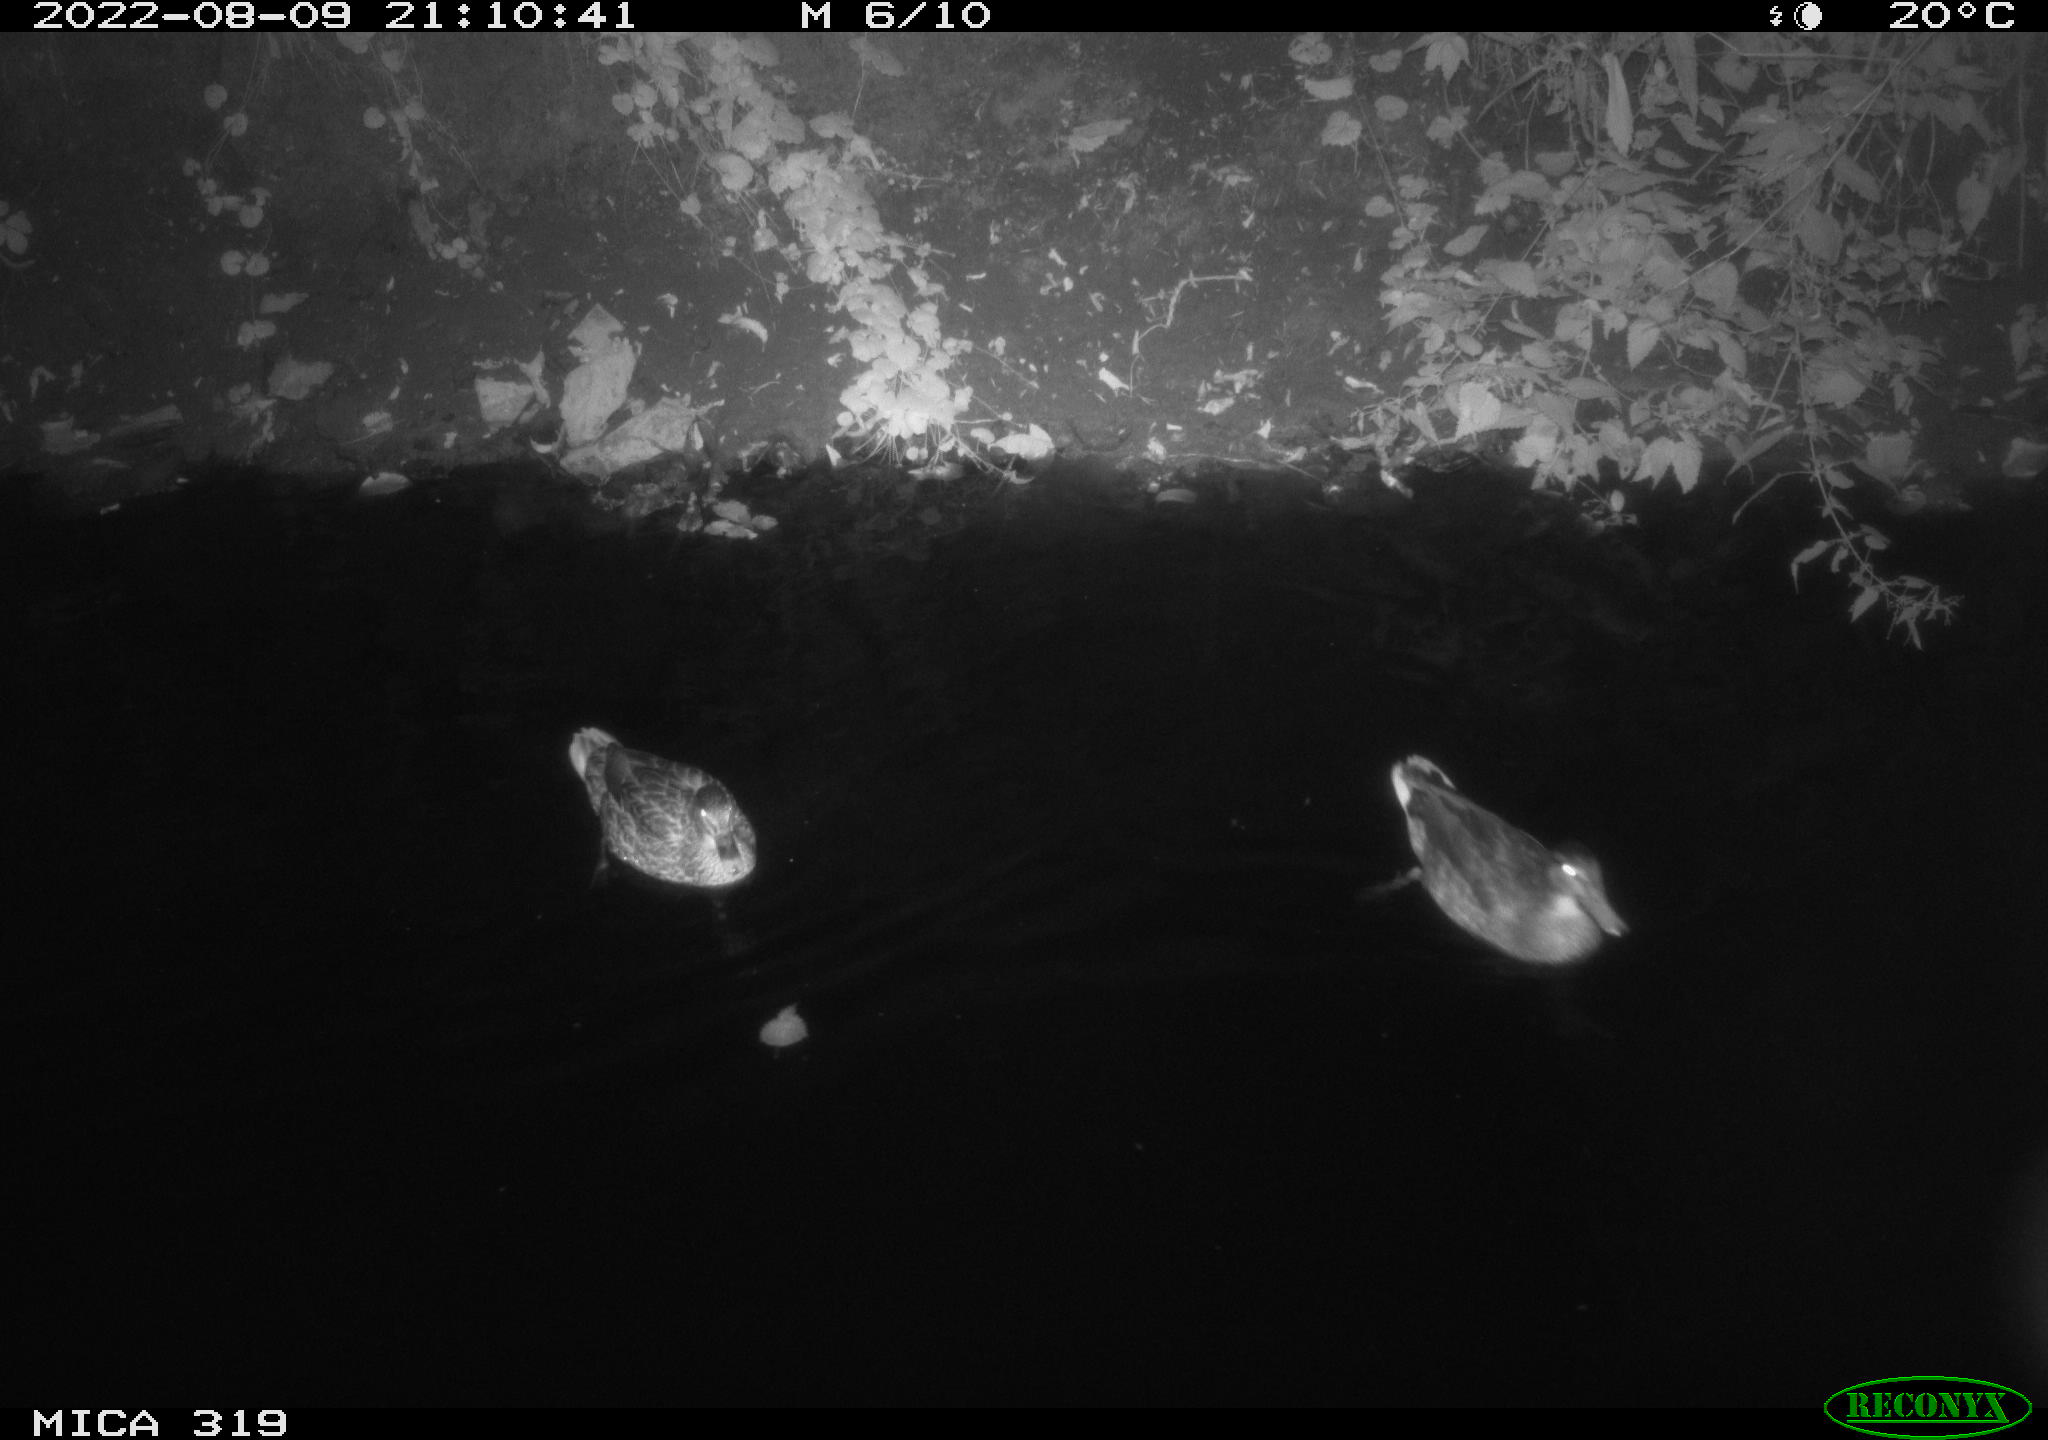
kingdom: Animalia
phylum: Chordata
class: Aves
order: Anseriformes
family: Anatidae
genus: Anas
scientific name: Anas
